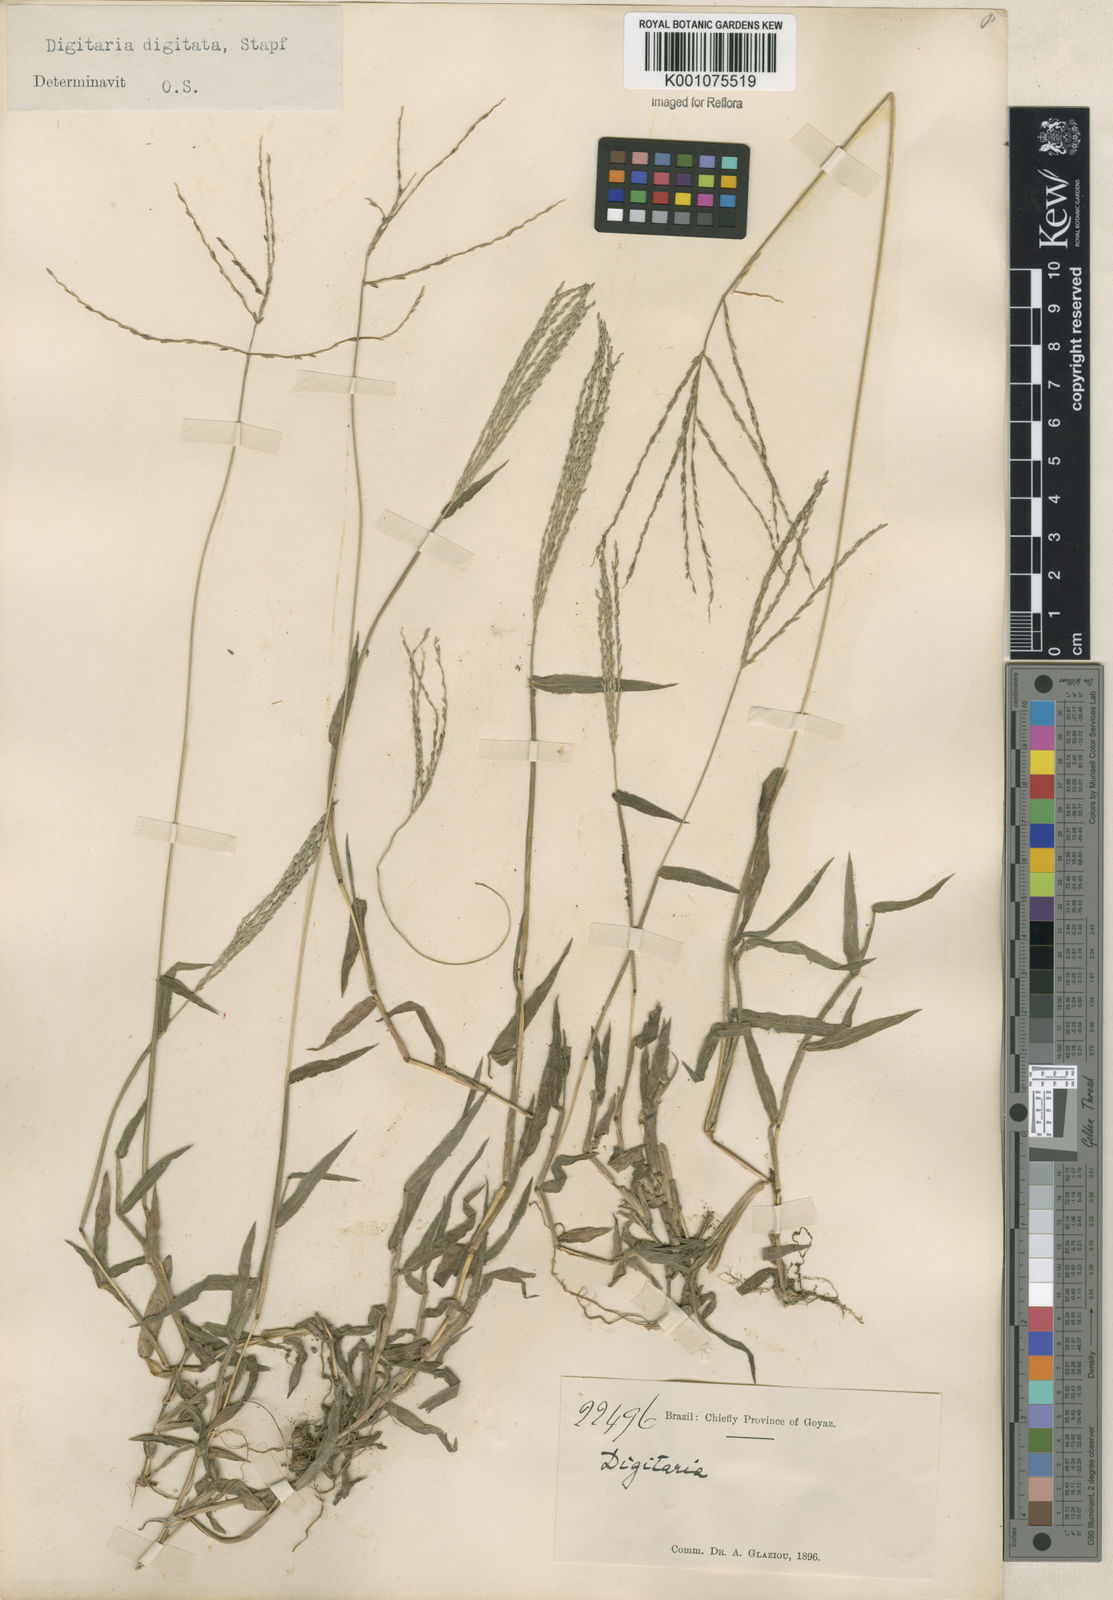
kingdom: Plantae
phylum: Tracheophyta
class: Liliopsida
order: Poales
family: Poaceae
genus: Digitaria
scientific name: Digitaria horizontalis
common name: Jamaican crabgrass
